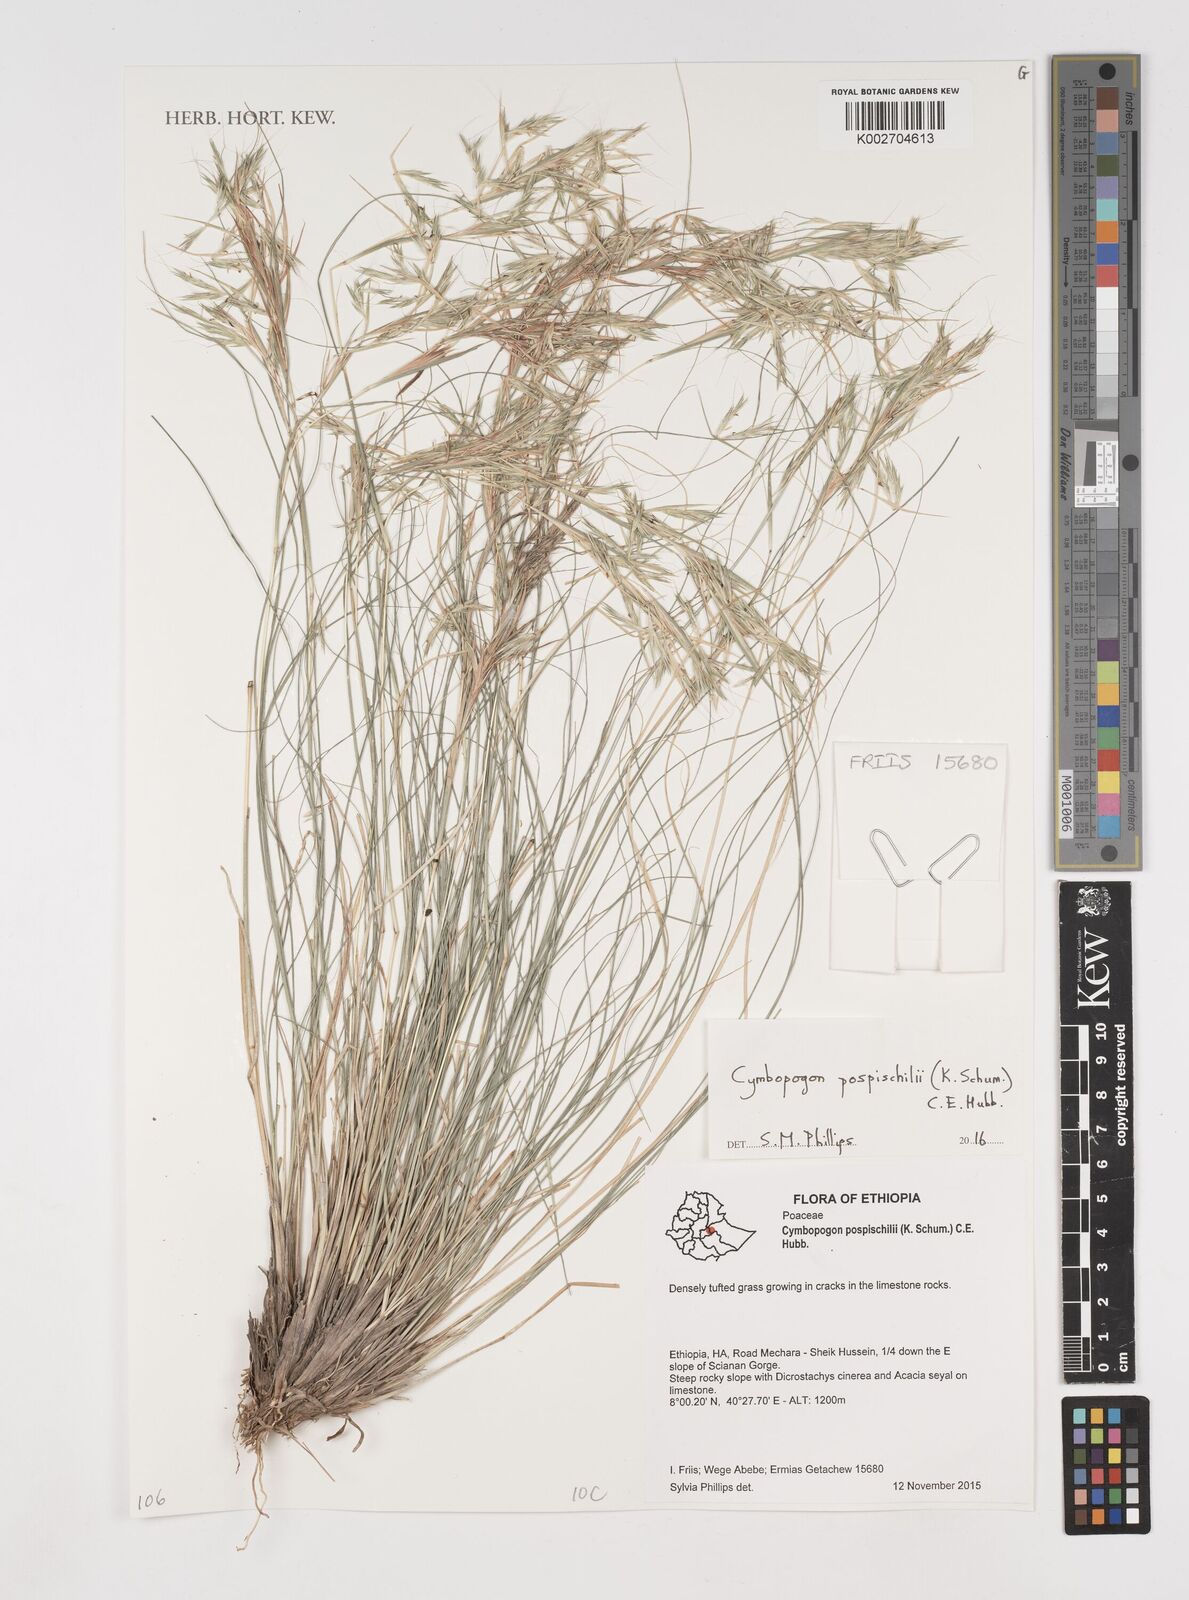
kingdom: Plantae
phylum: Tracheophyta
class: Liliopsida
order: Poales
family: Poaceae
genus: Cymbopogon
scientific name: Cymbopogon pospischilii
